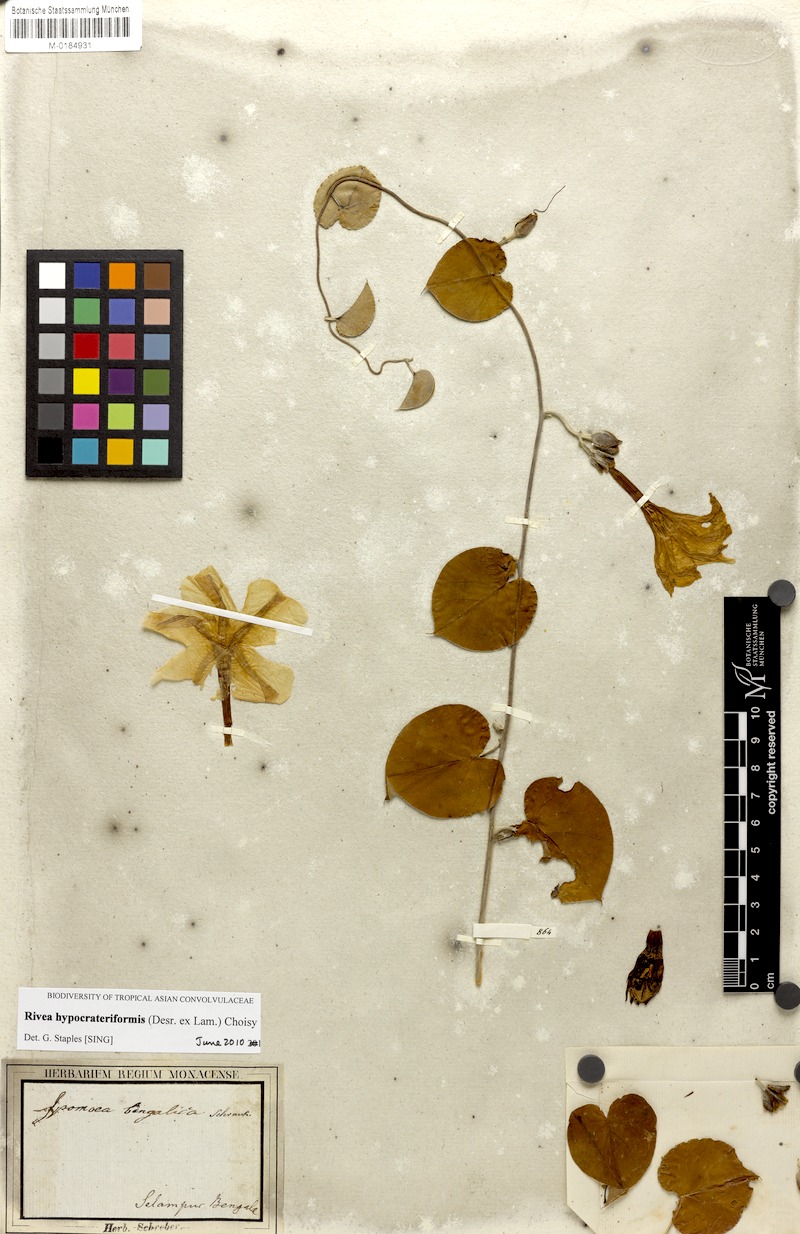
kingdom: Plantae
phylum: Tracheophyta
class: Magnoliopsida
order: Solanales
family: Convolvulaceae
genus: Rivea
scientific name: Rivea hypocrateriformis
